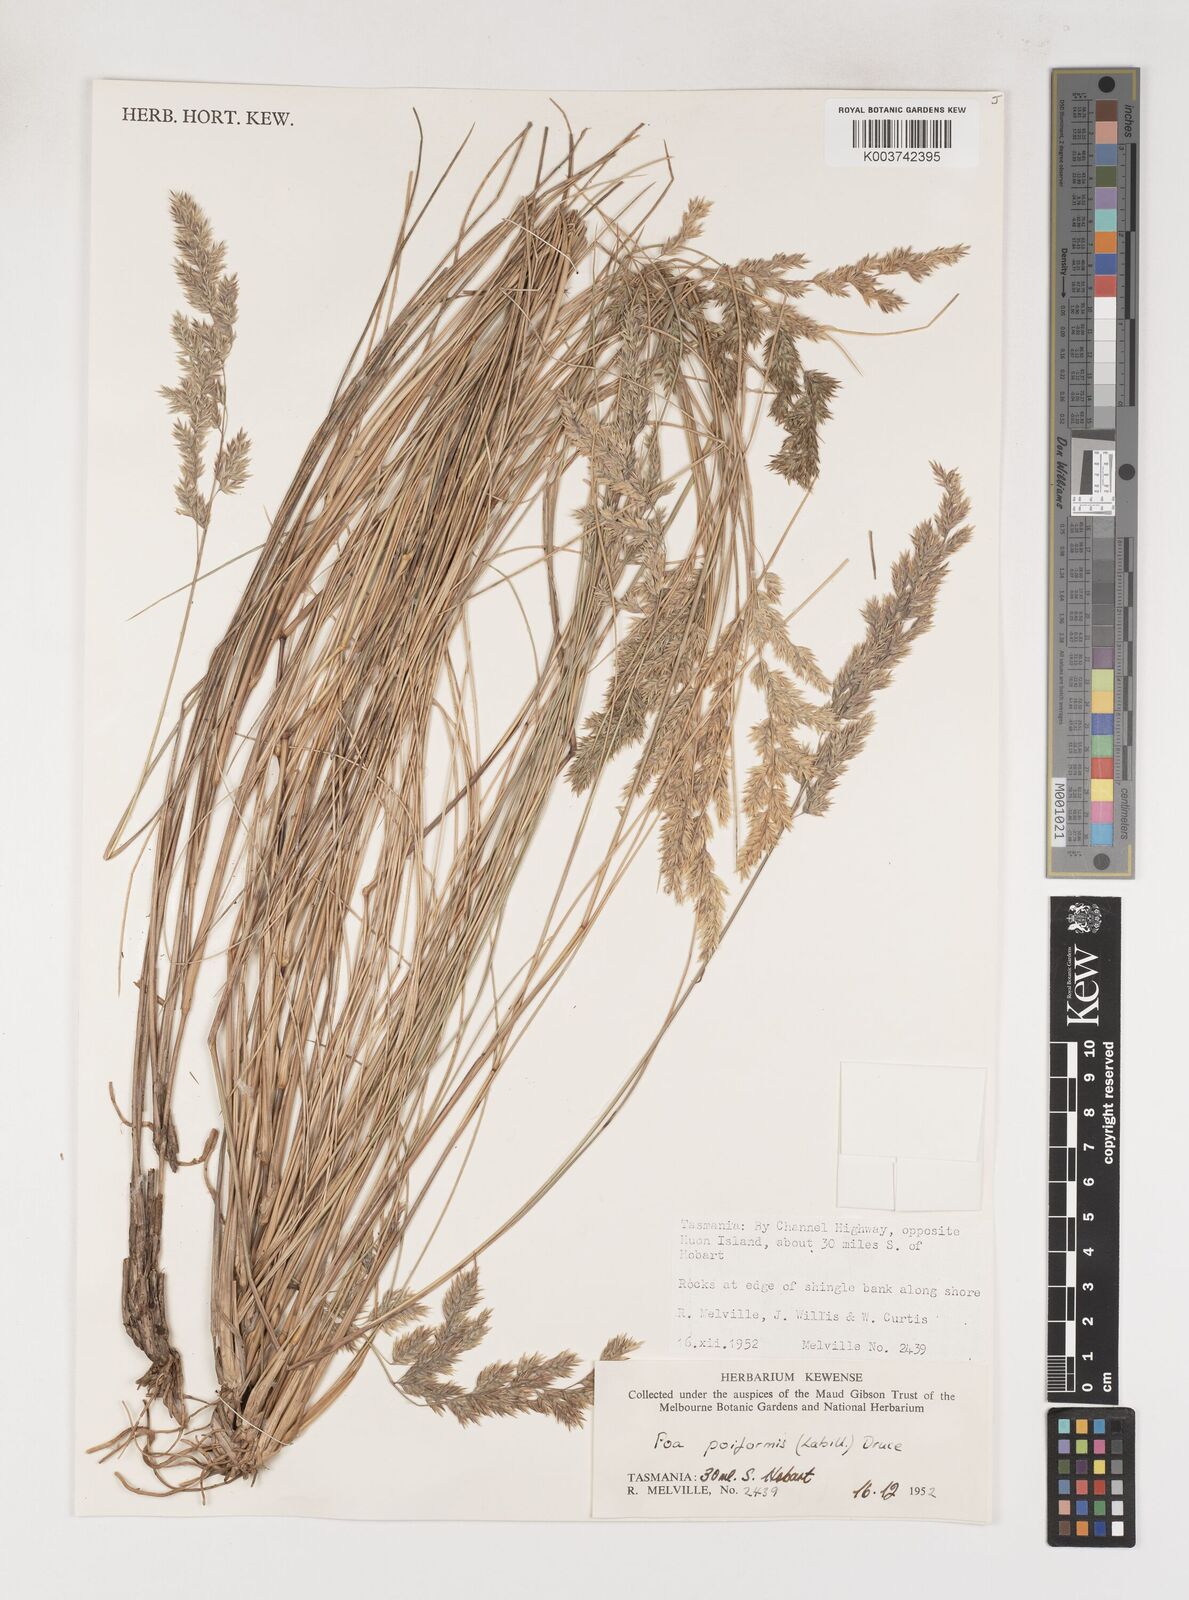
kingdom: Plantae
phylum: Tracheophyta
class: Liliopsida
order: Poales
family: Poaceae
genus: Poa
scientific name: Poa poiformis
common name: Tussock poa
